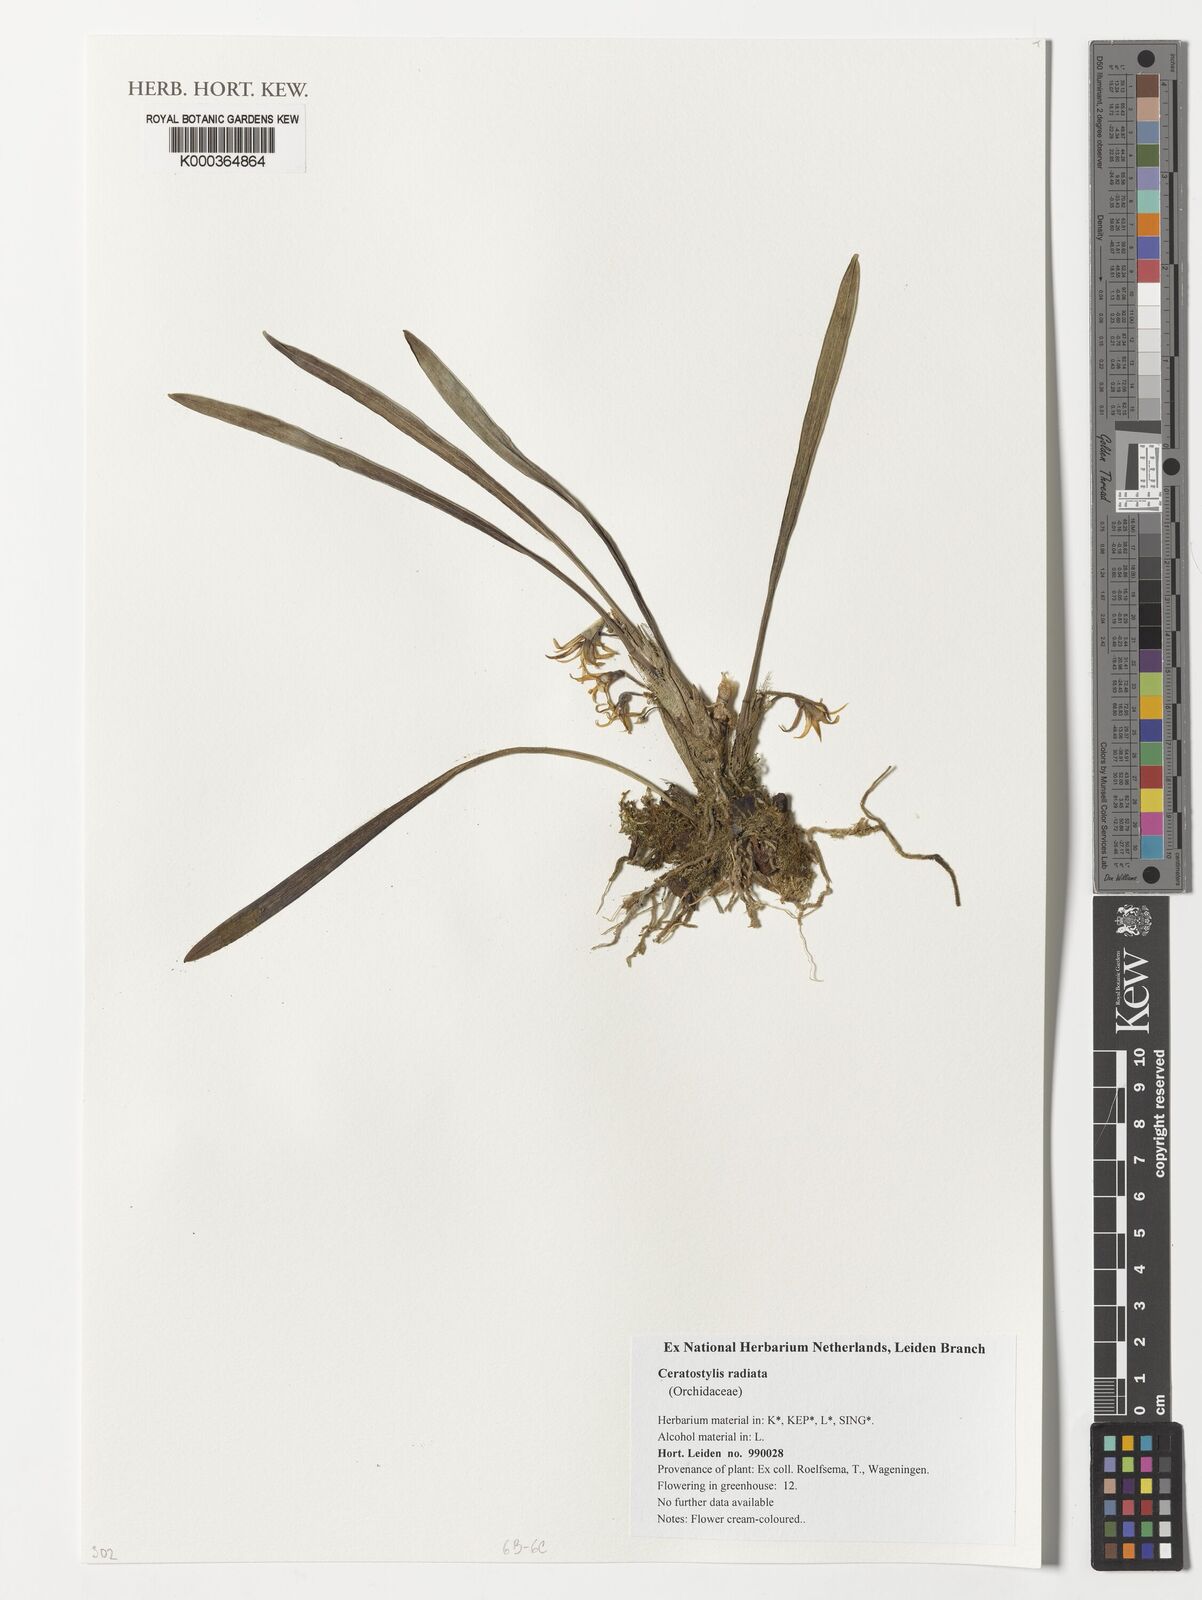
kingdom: Plantae
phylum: Tracheophyta
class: Liliopsida
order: Asparagales
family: Orchidaceae
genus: Ceratostylis
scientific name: Ceratostylis radiata
